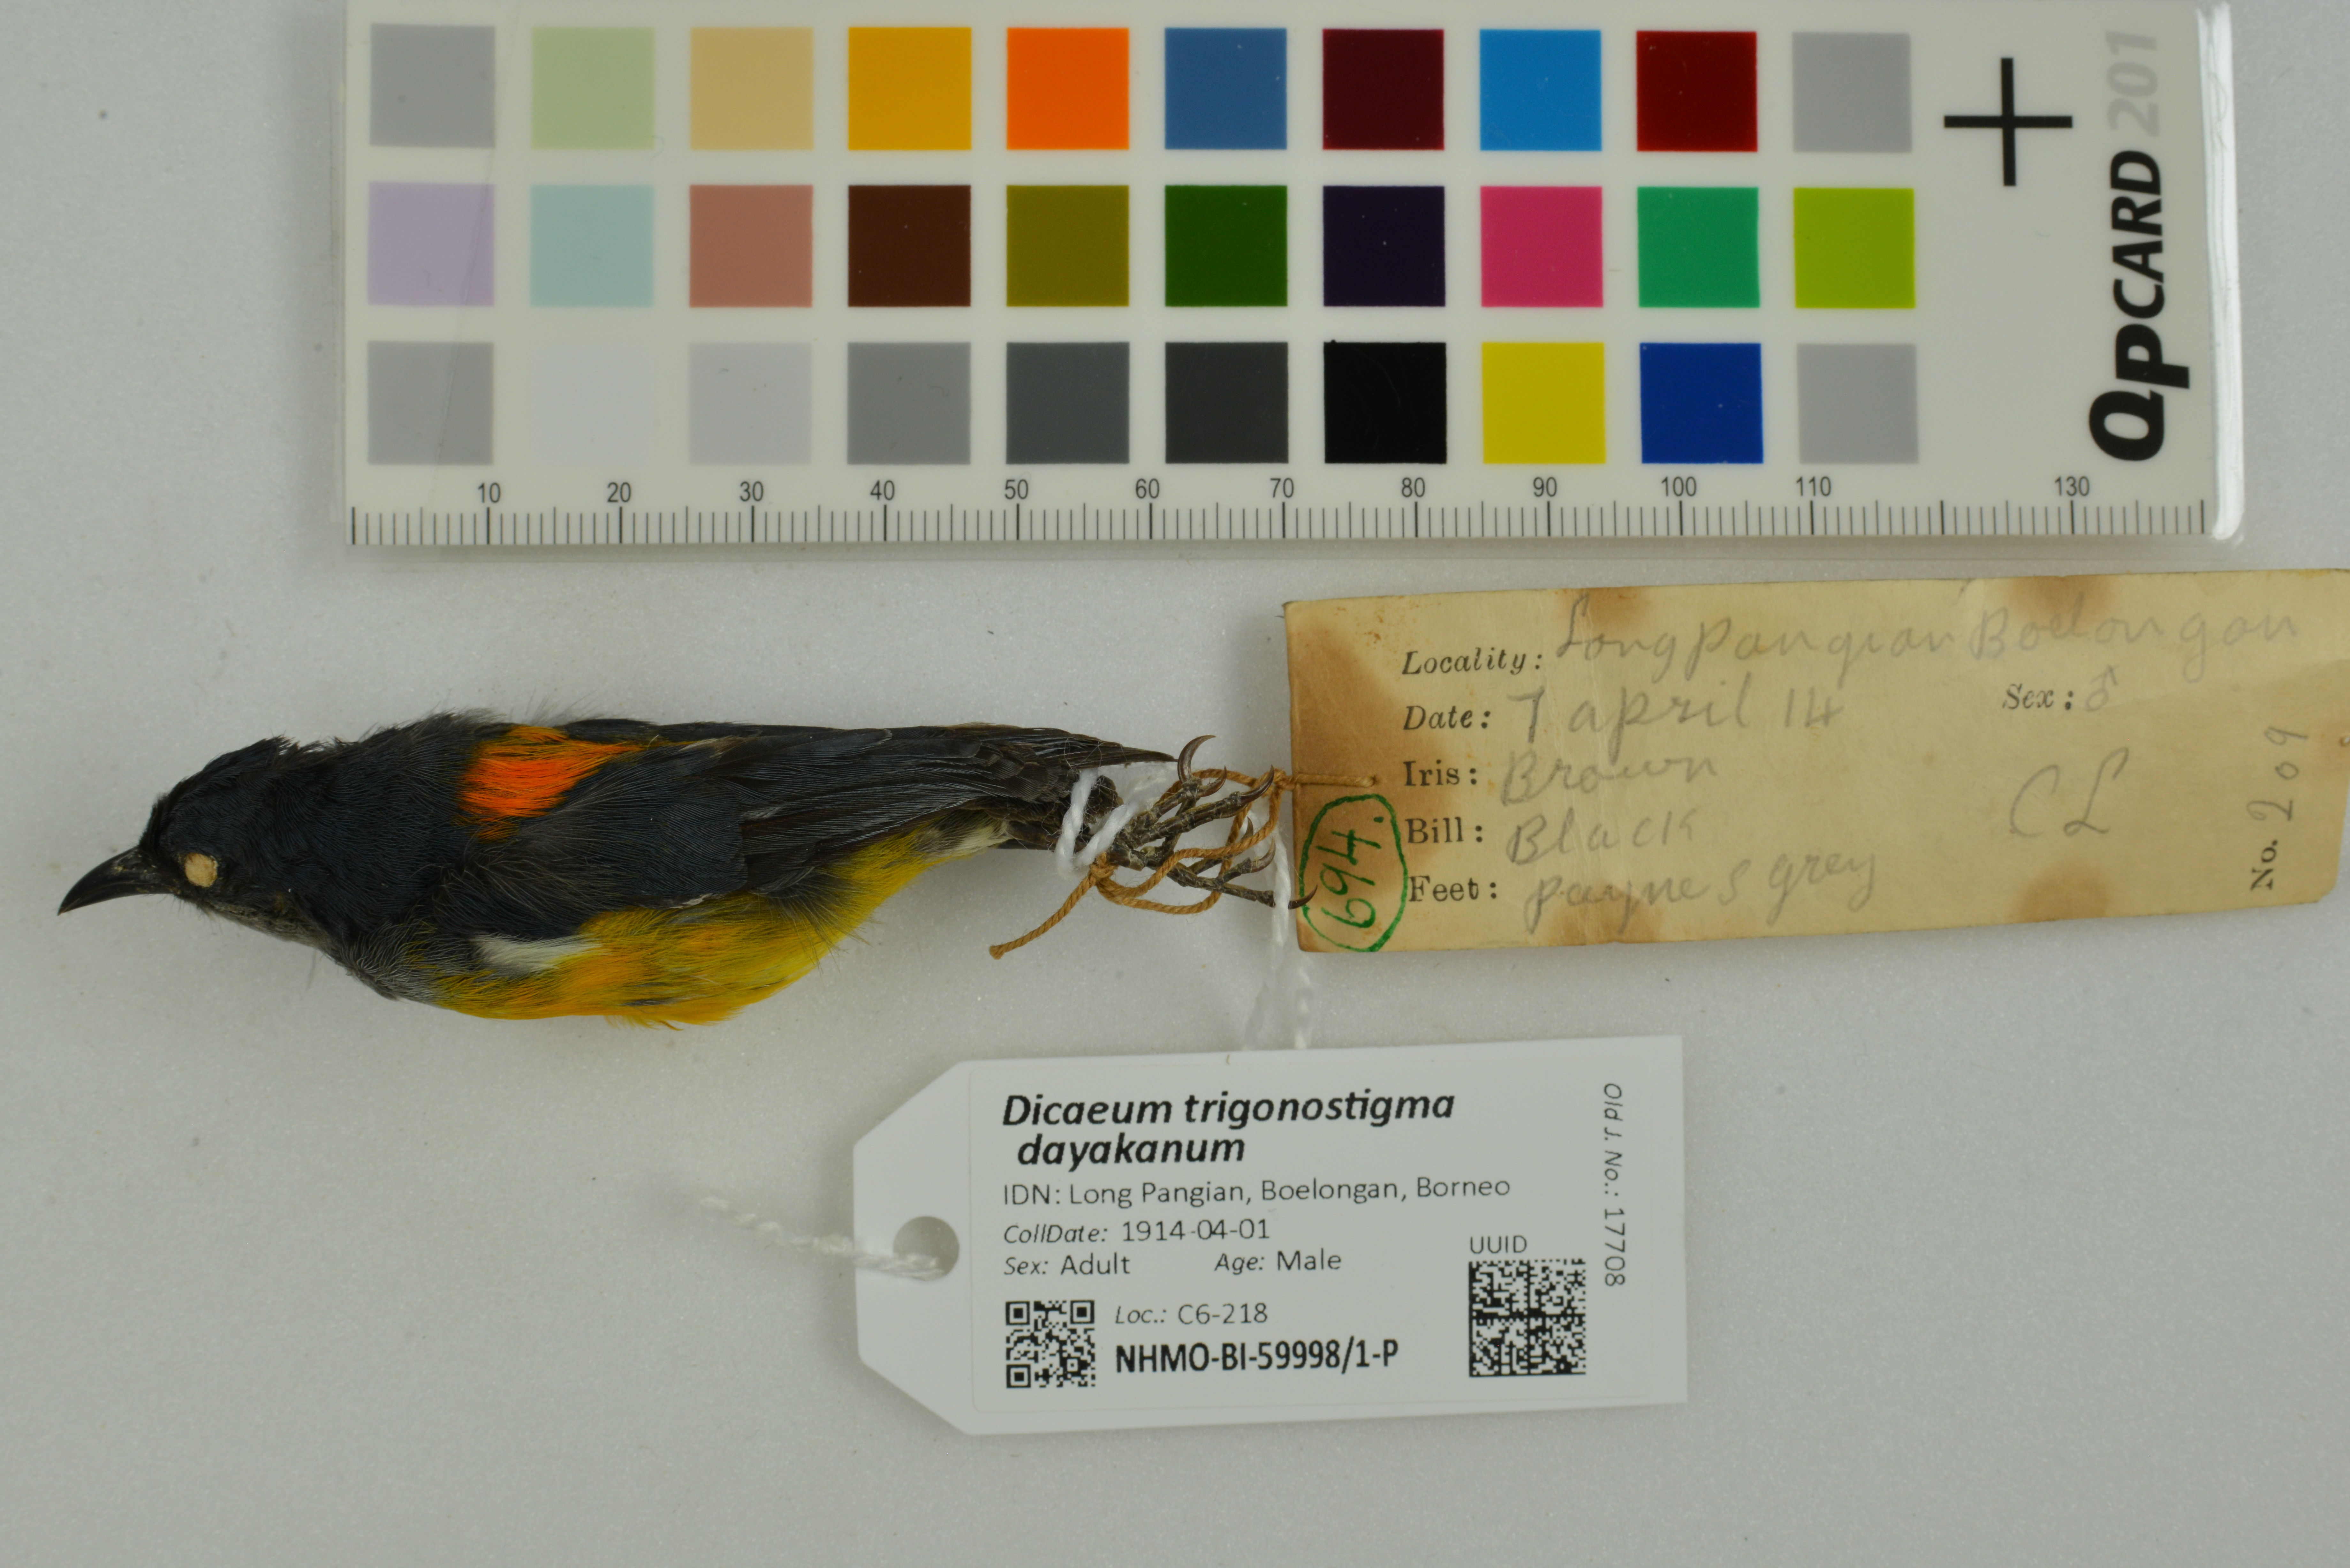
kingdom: Animalia
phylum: Chordata
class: Aves
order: Passeriformes
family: Dicaeidae
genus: Dicaeum
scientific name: Dicaeum trigonostigma
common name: Orange-bellied flowerpecker
